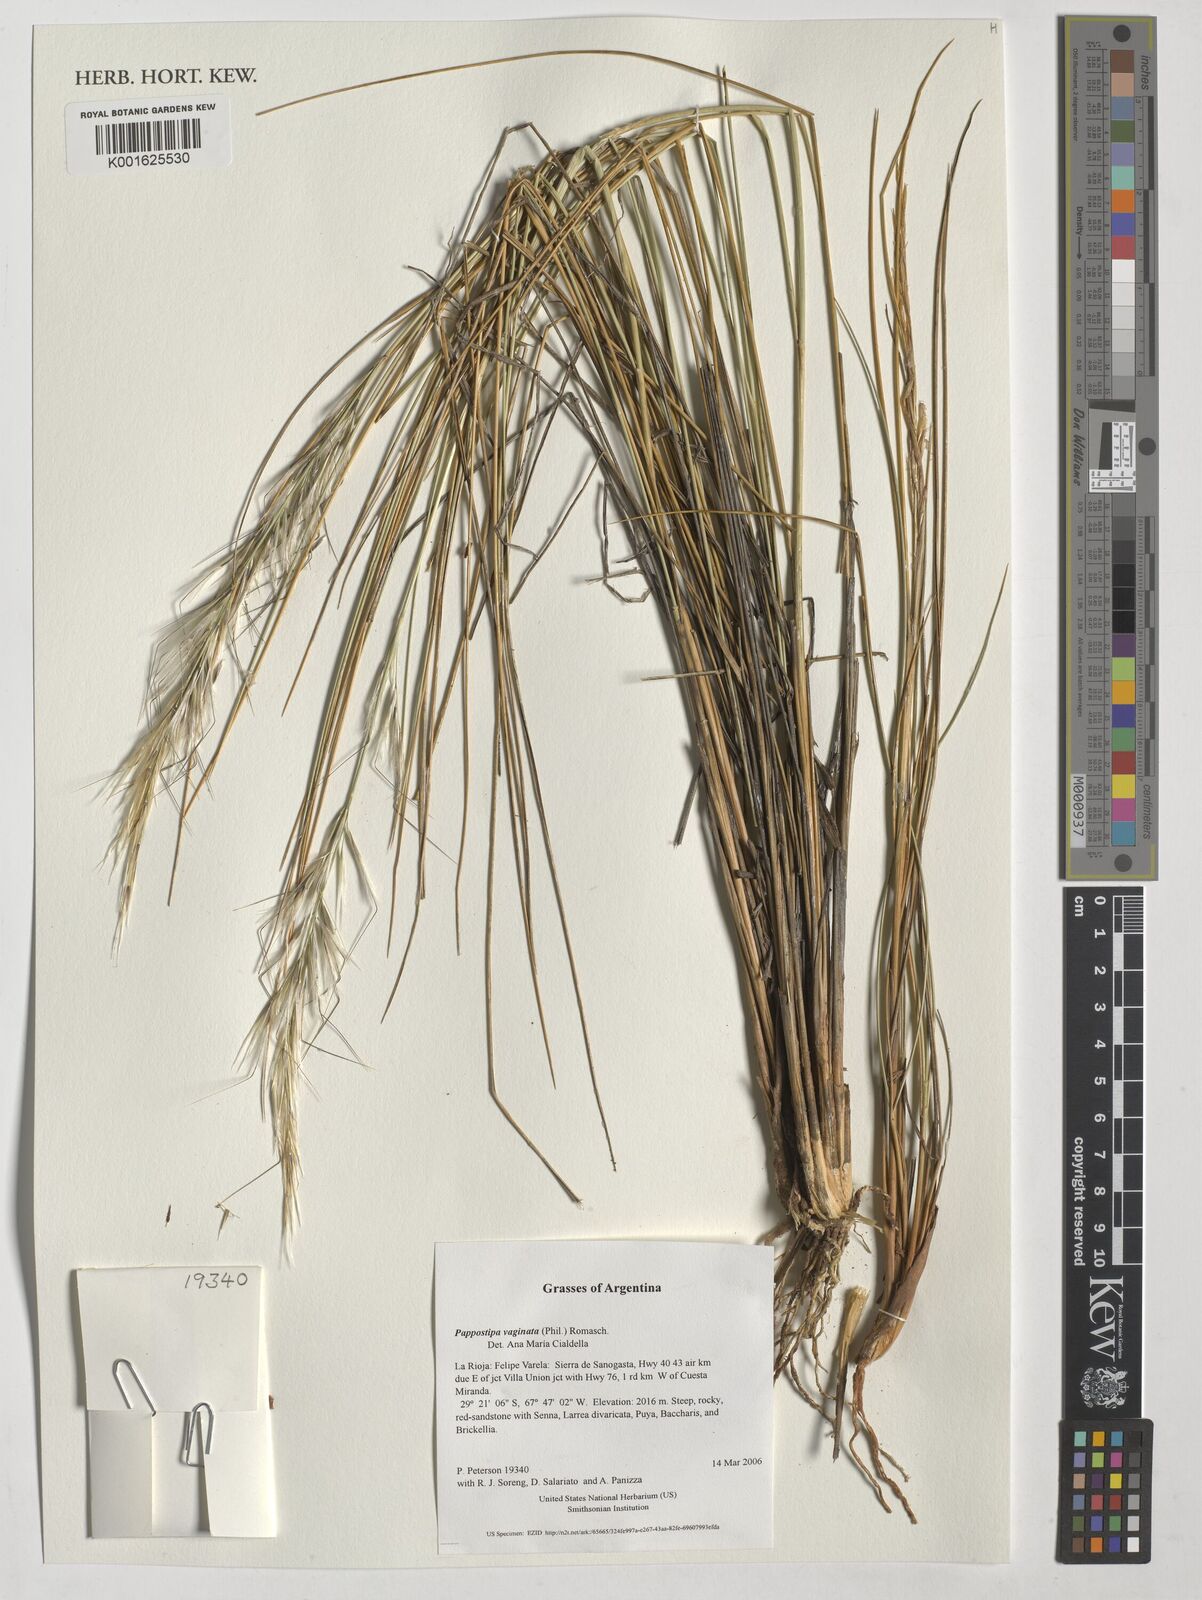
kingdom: Plantae
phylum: Tracheophyta
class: Liliopsida
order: Poales
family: Poaceae
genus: Pappostipa
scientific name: Pappostipa vaginata
